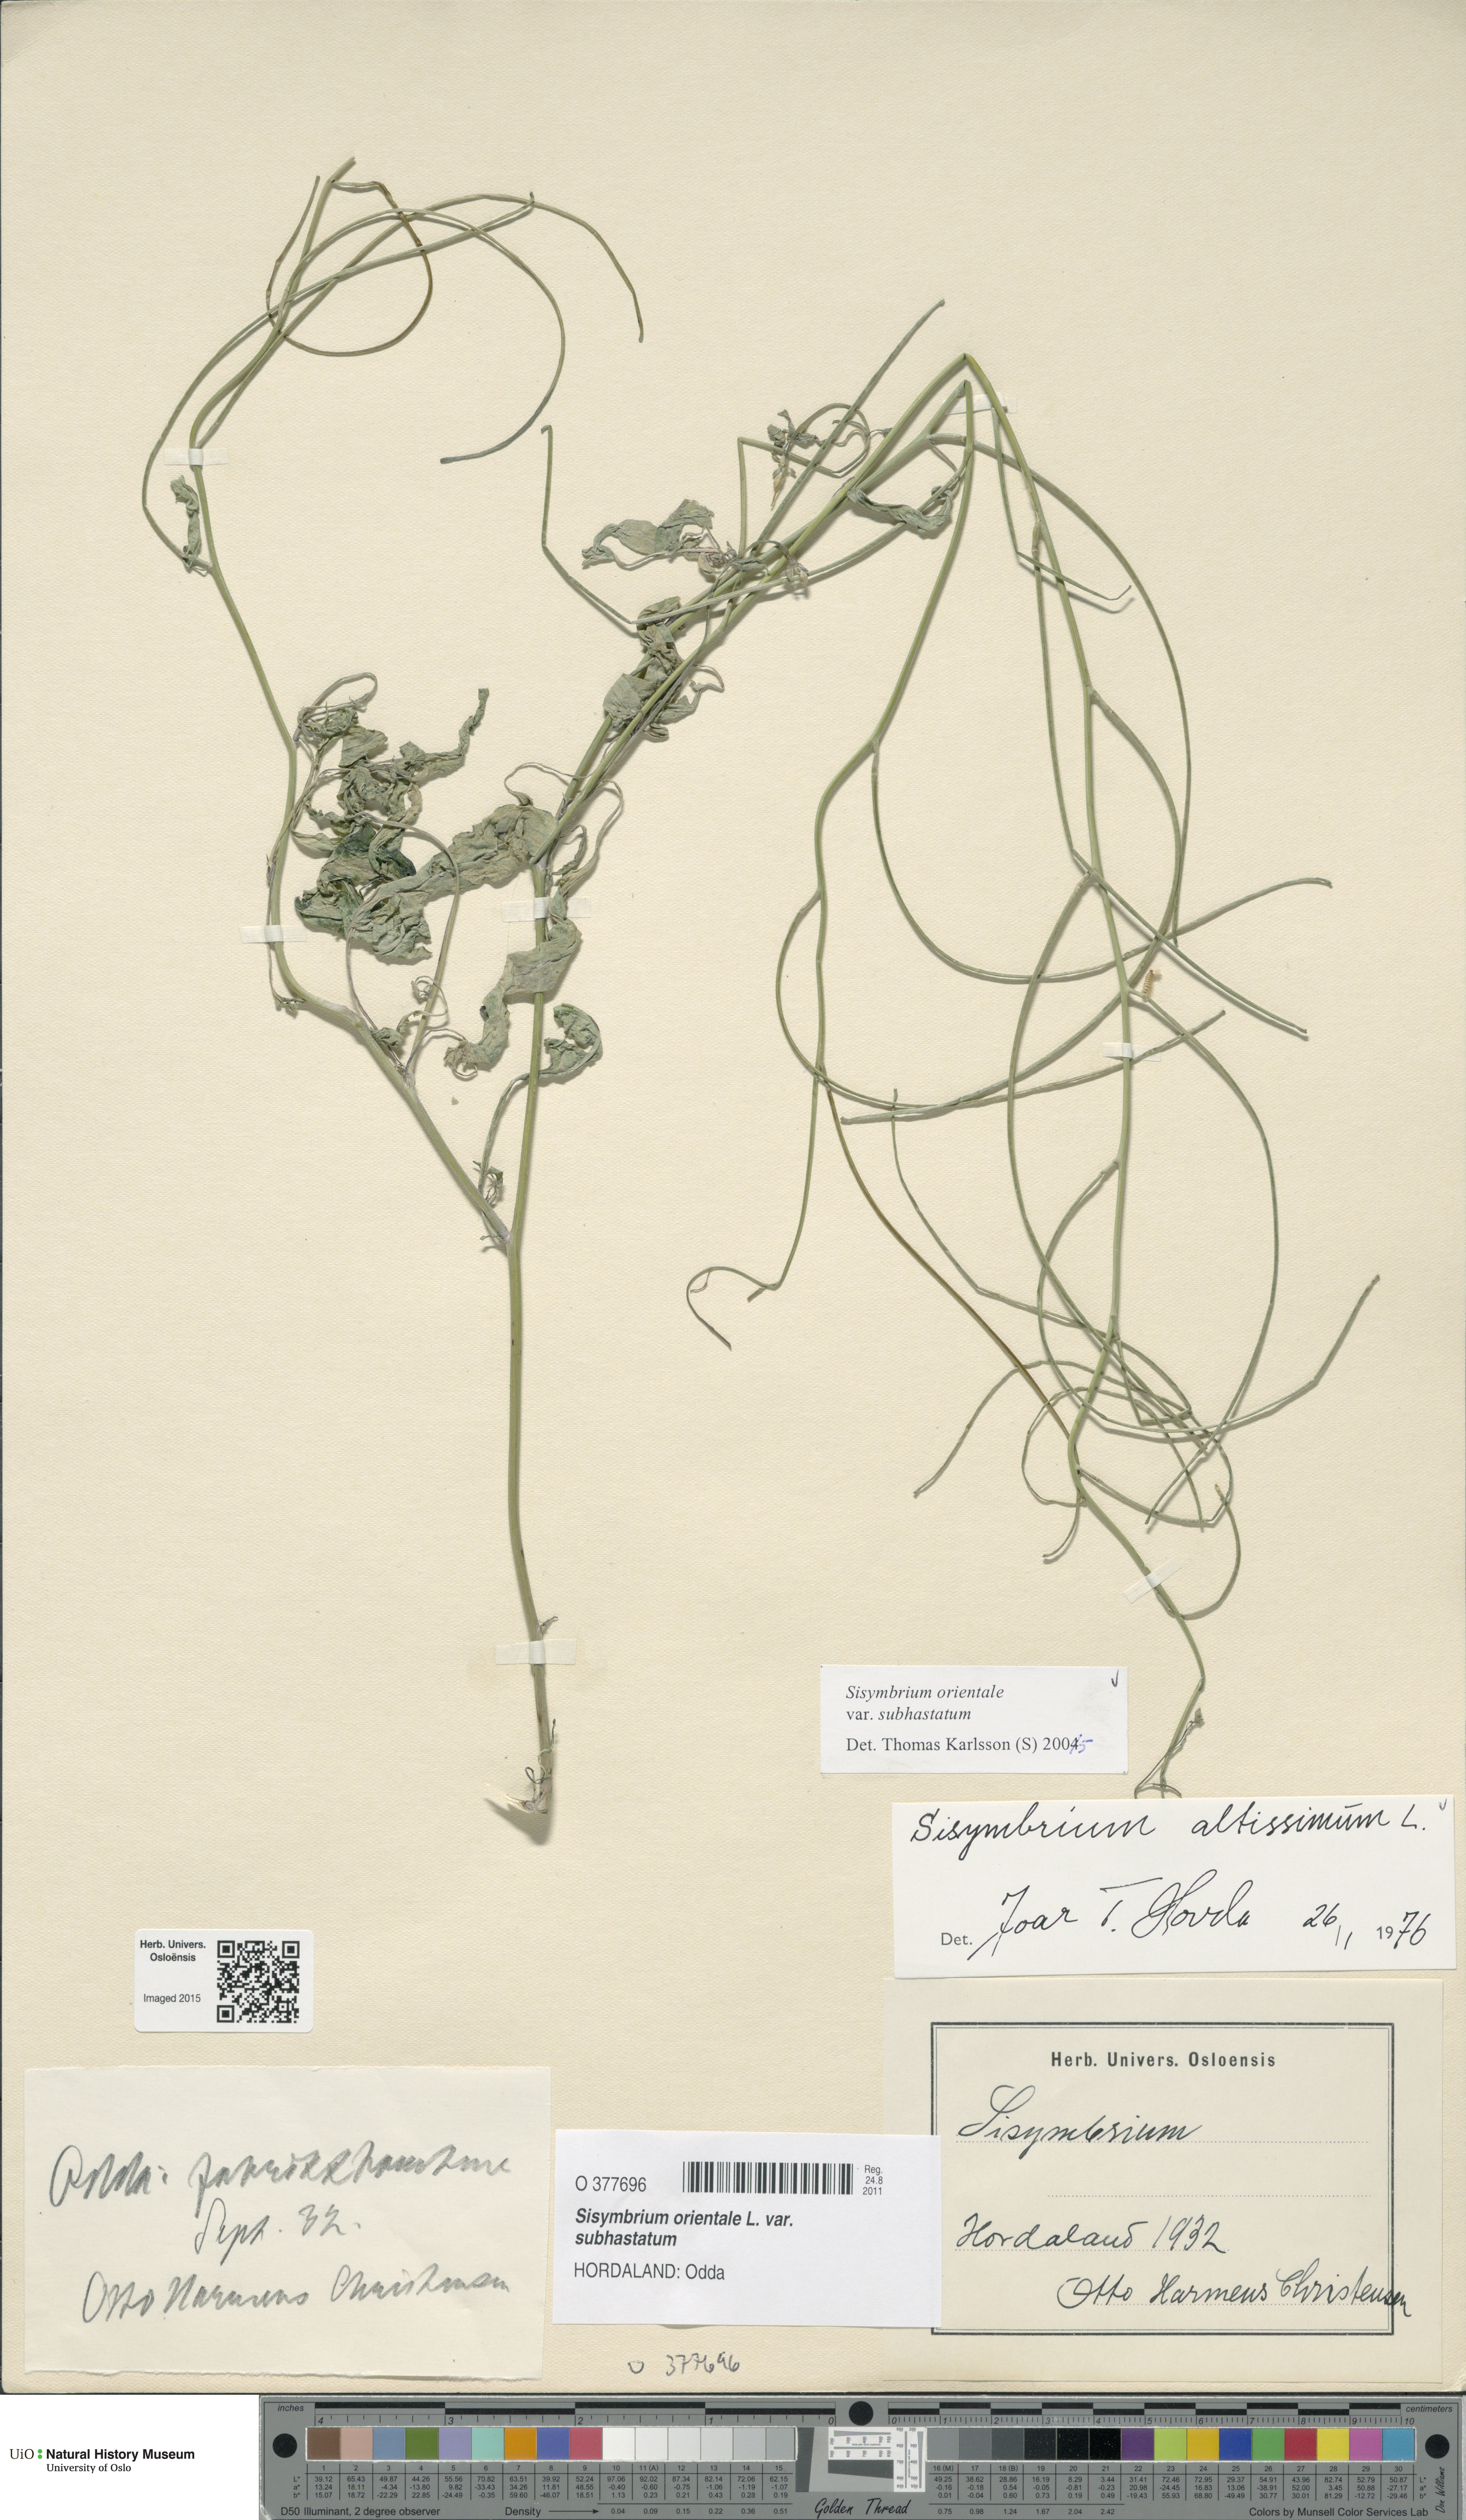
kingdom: Plantae
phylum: Tracheophyta
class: Magnoliopsida
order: Brassicales
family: Brassicaceae
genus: Sisymbrium
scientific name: Sisymbrium orientale
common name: Eastern rocket
